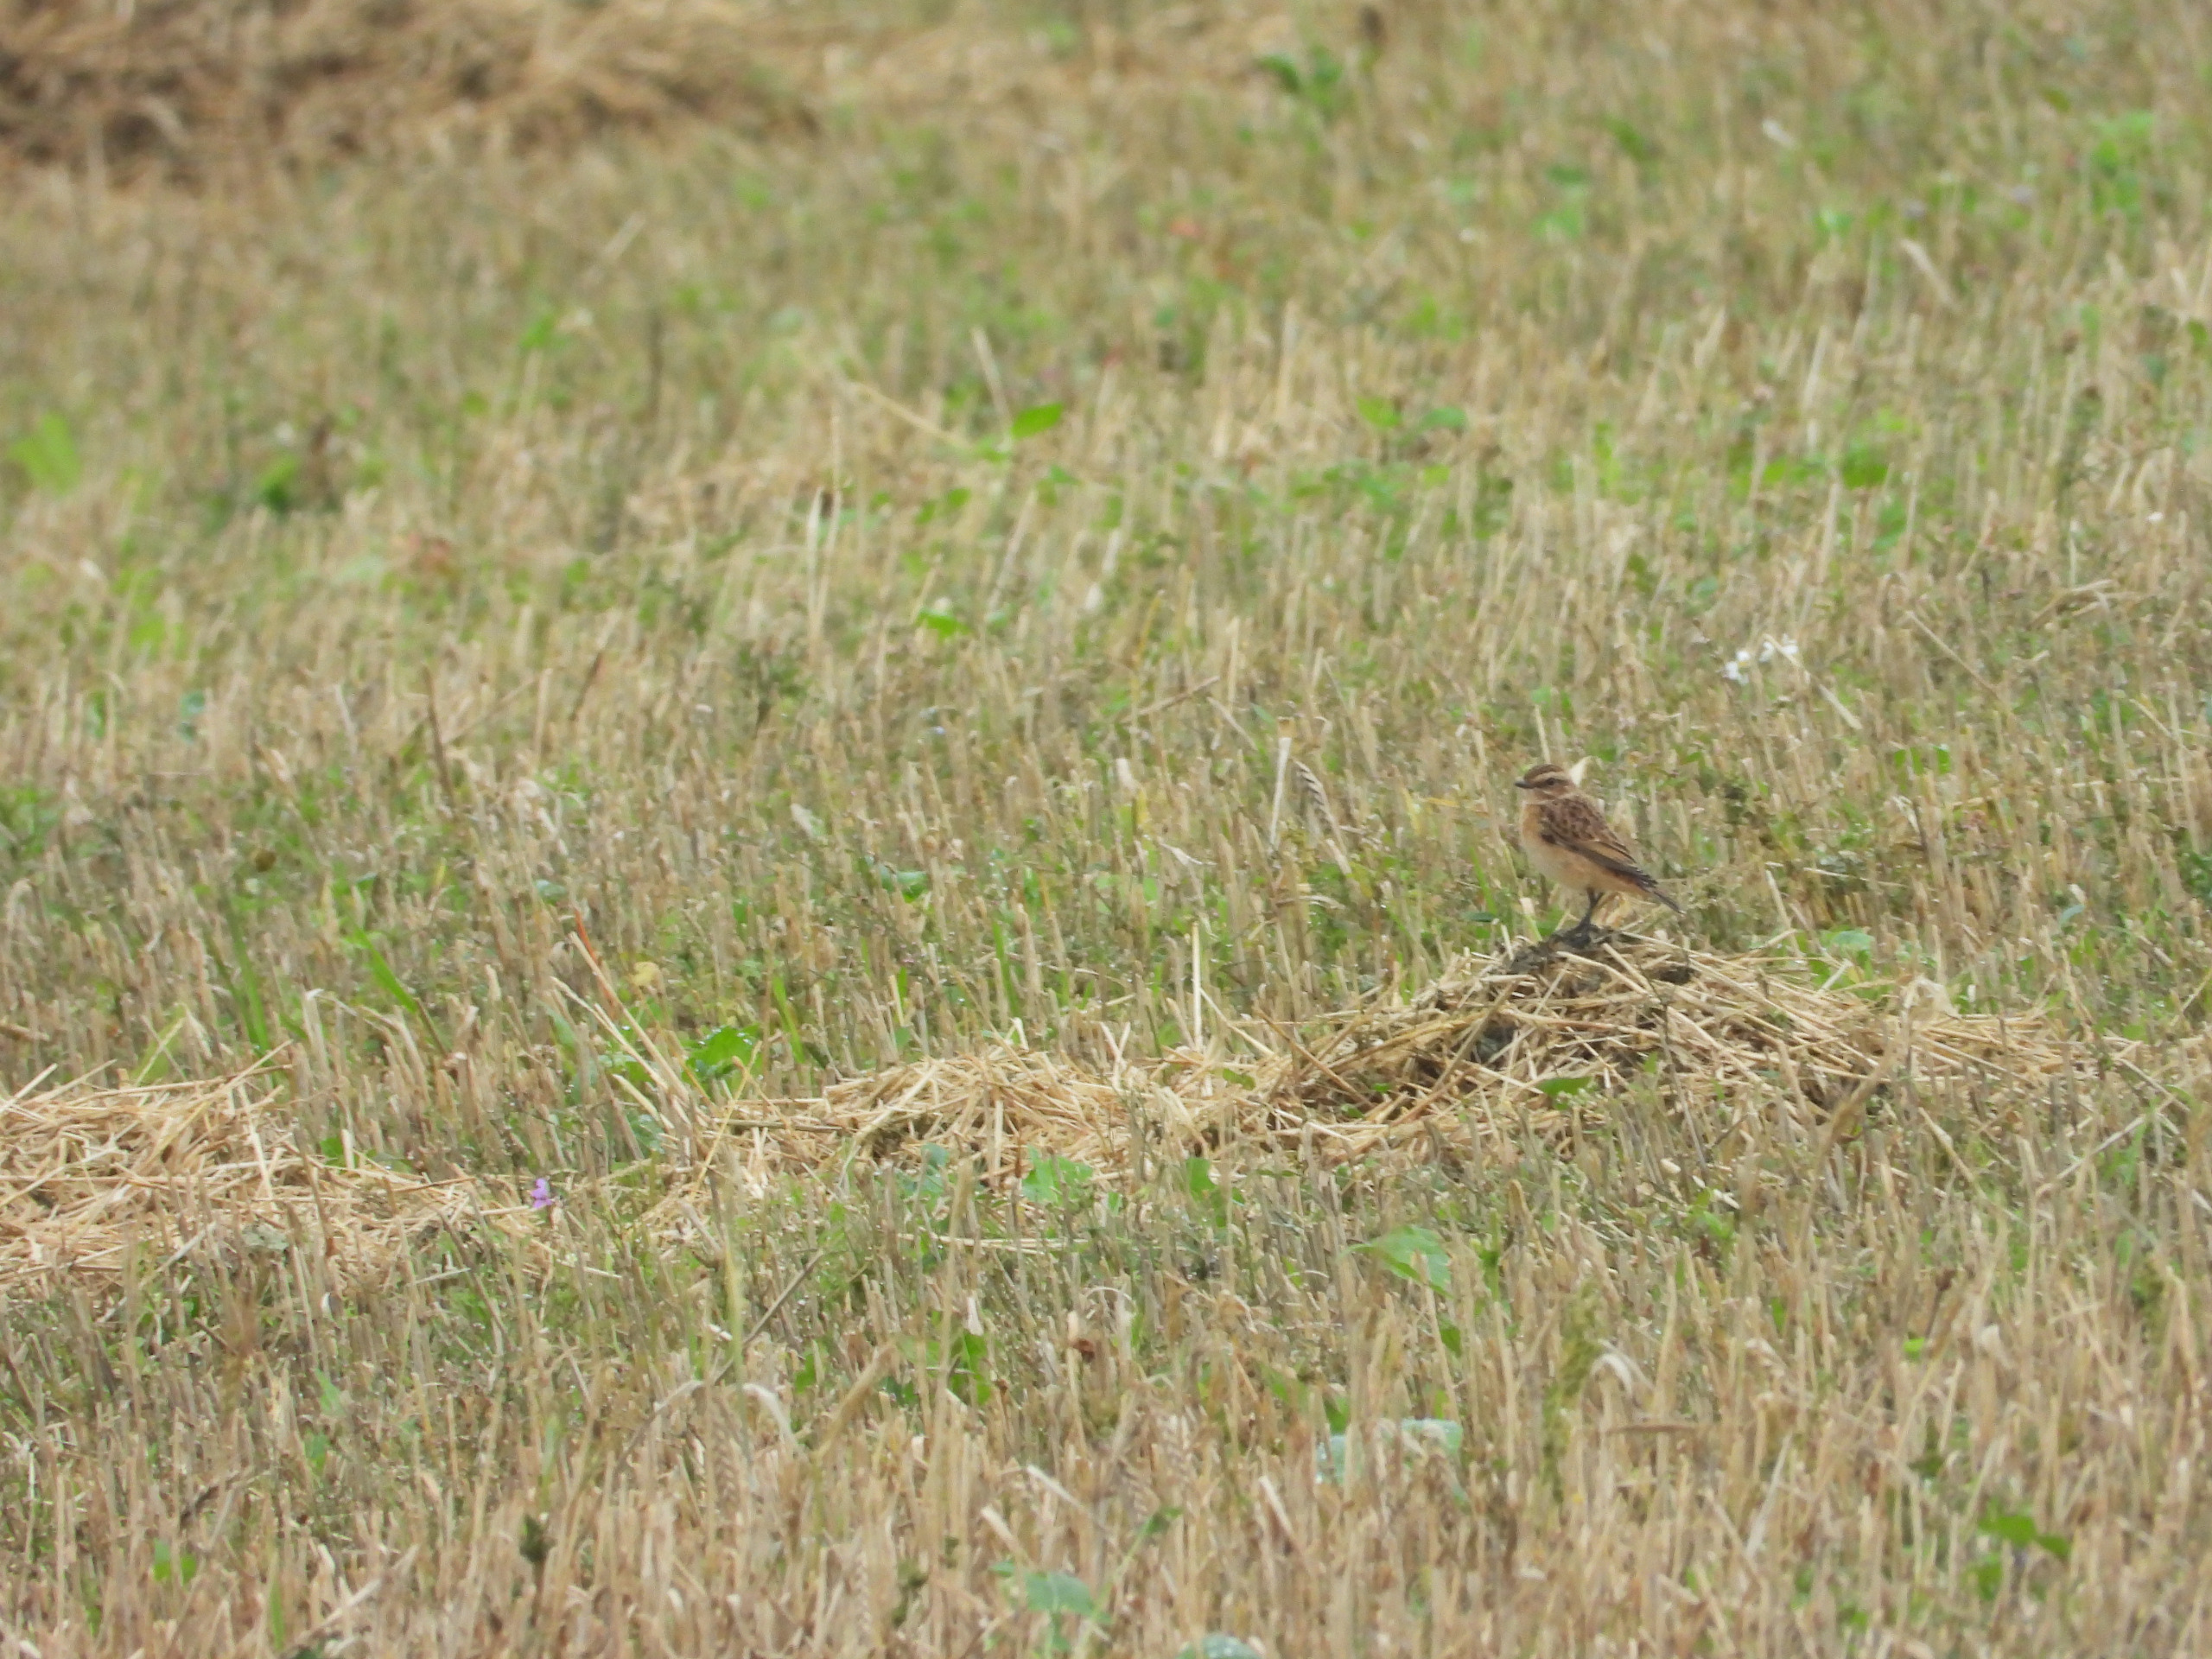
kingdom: Animalia
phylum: Chordata
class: Aves
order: Passeriformes
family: Muscicapidae
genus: Saxicola
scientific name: Saxicola rubetra
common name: Bynkefugl
